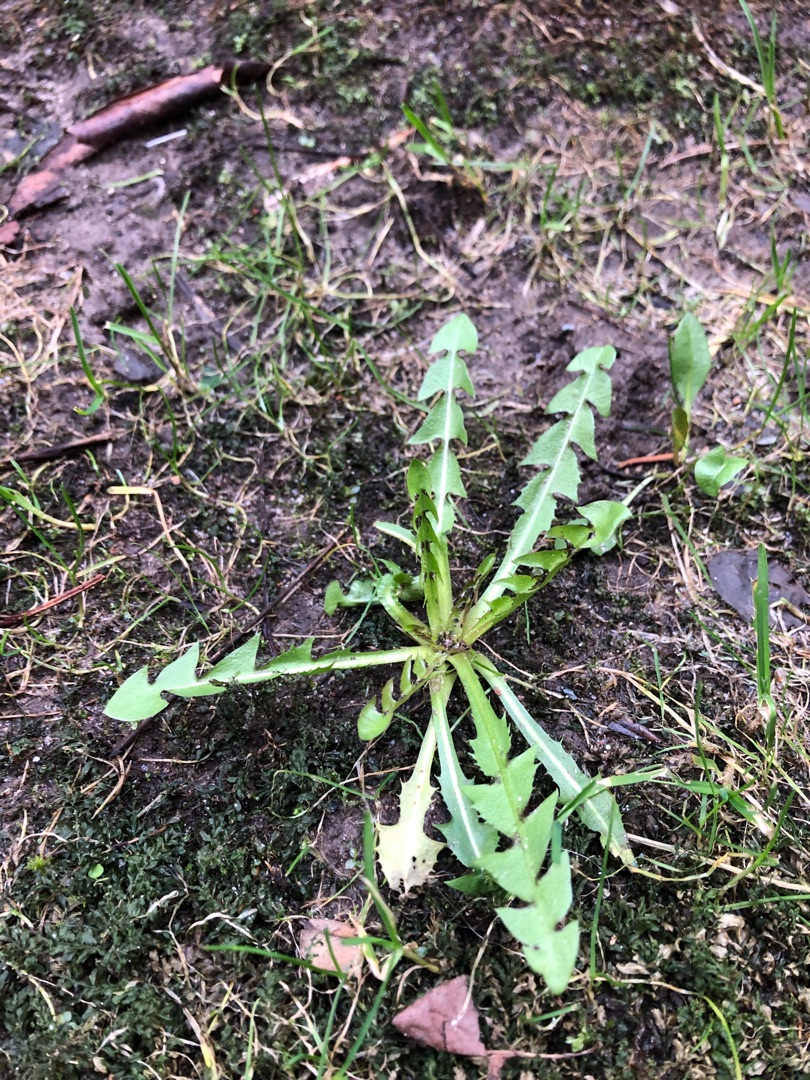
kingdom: Plantae
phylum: Tracheophyta
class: Magnoliopsida
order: Asterales
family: Asteraceae
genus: Taraxacum
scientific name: Taraxacum
